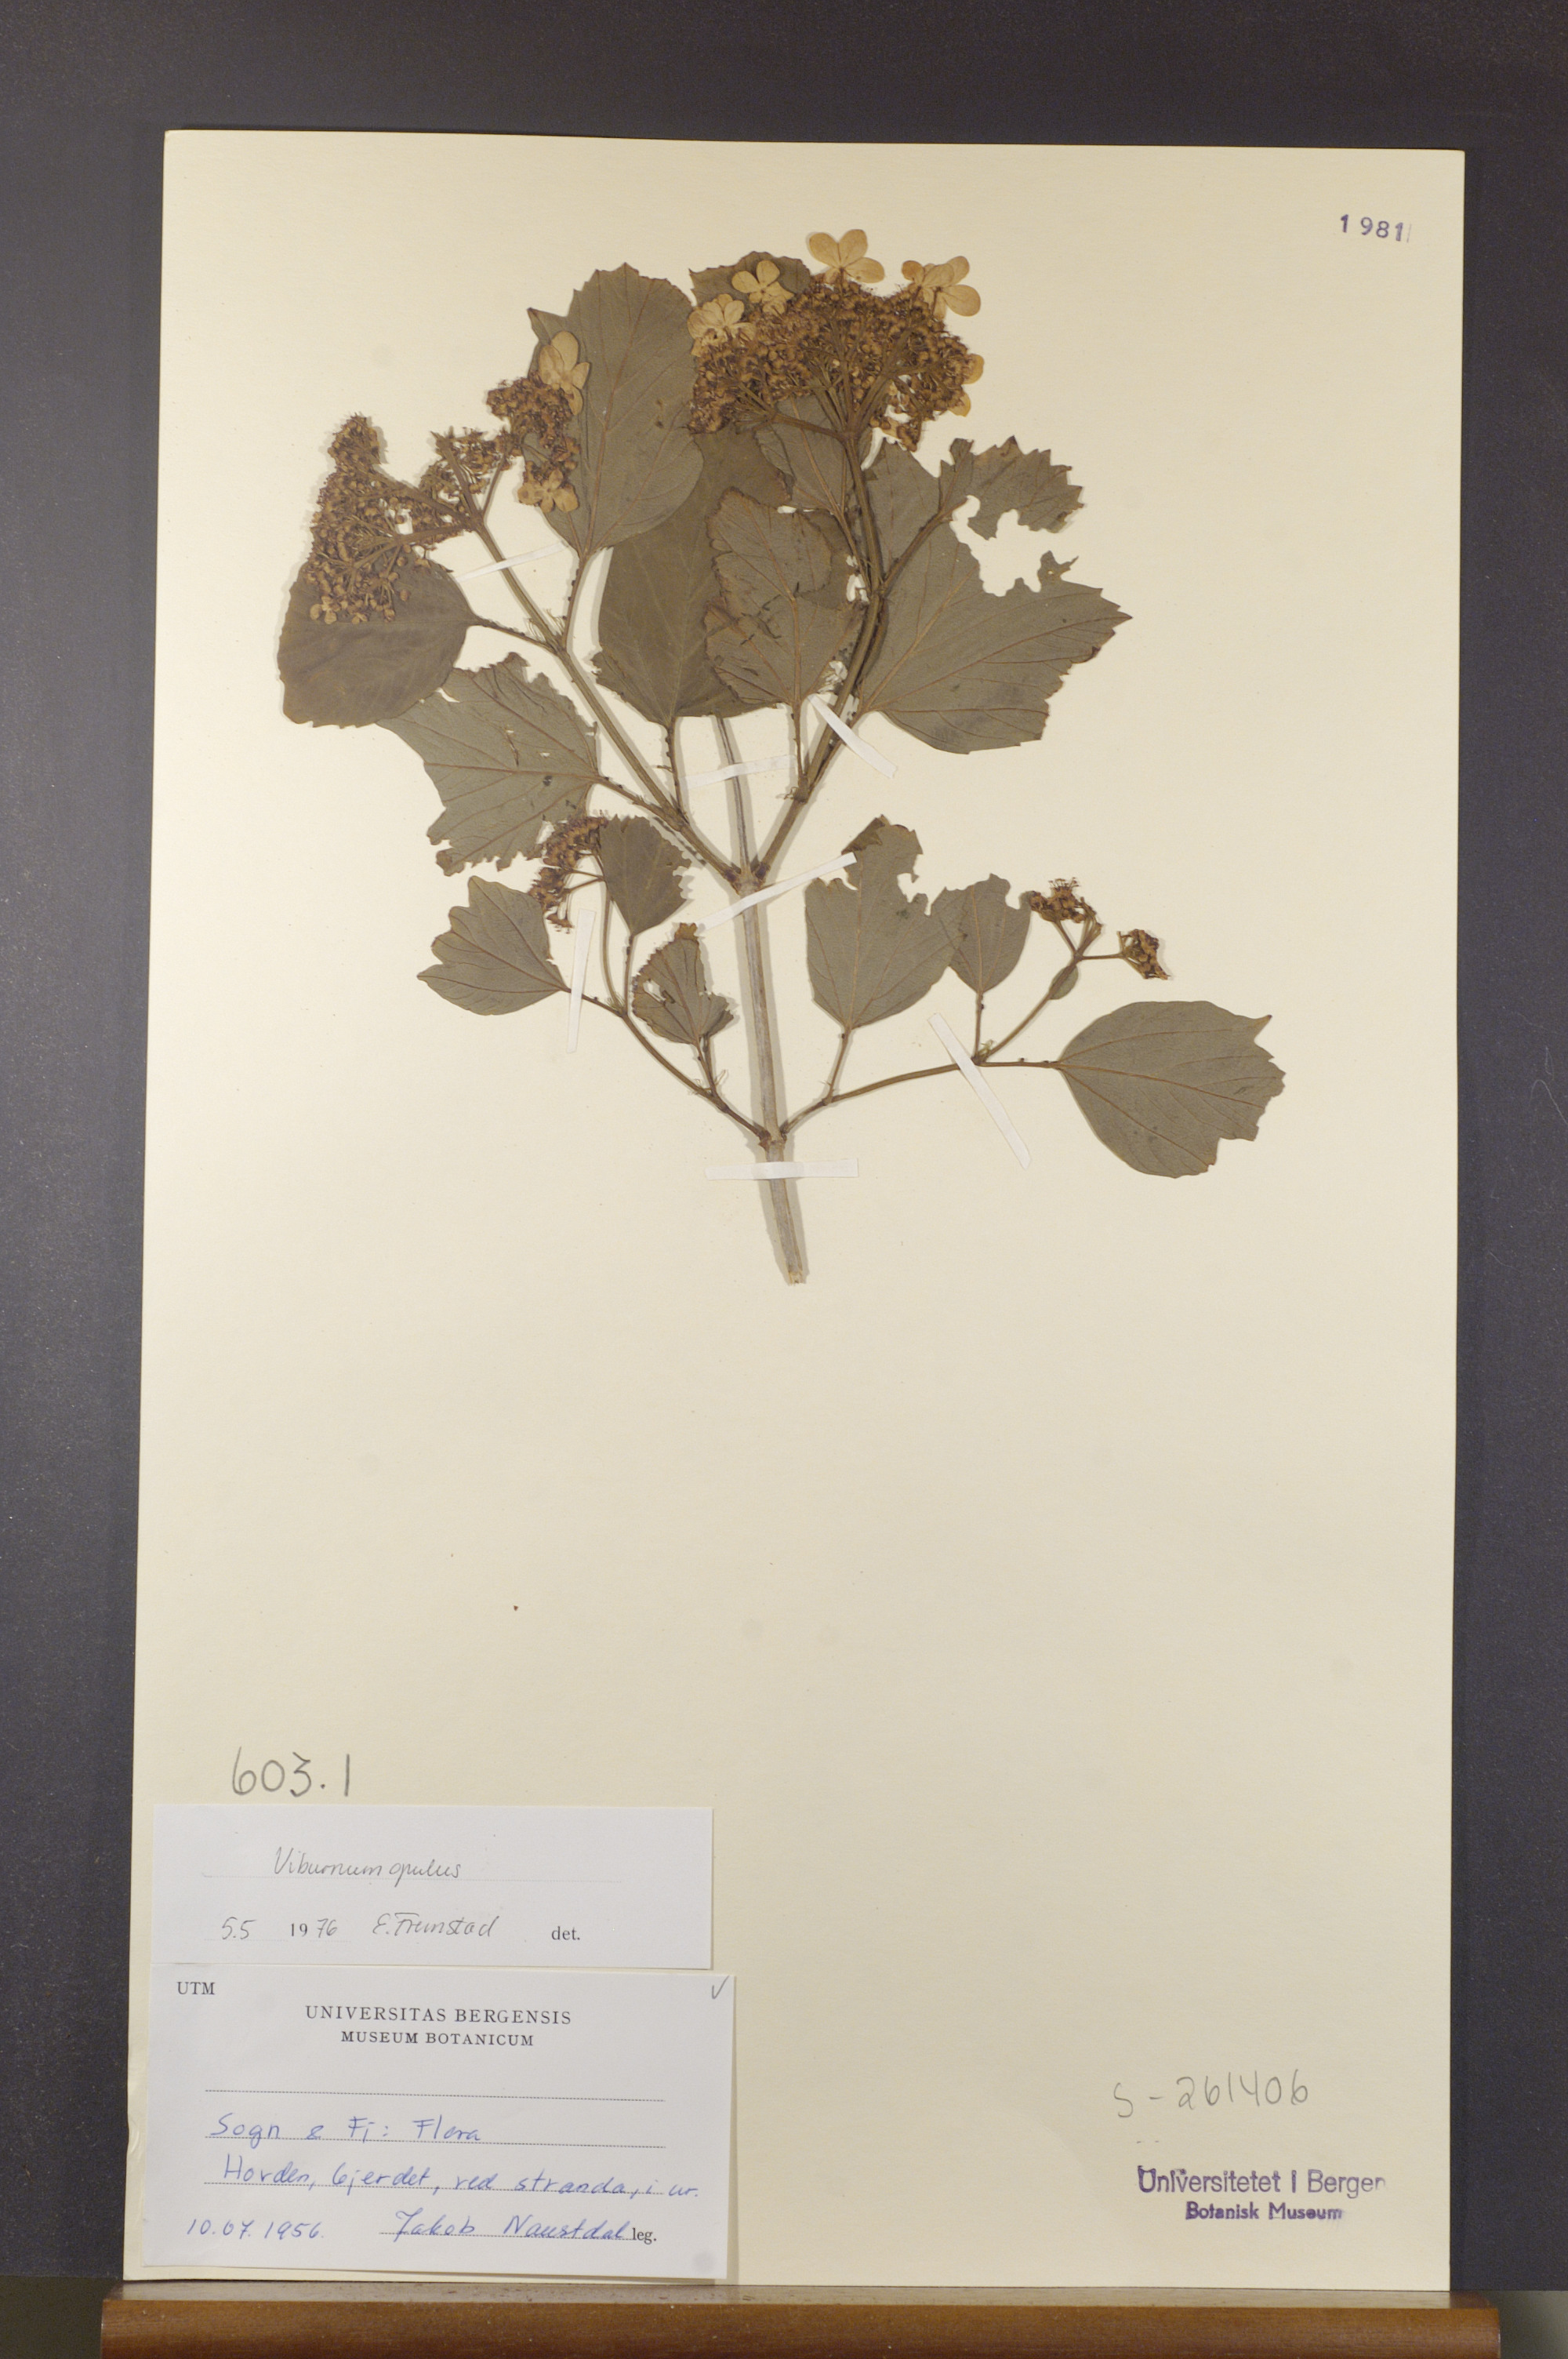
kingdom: Plantae
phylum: Tracheophyta
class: Magnoliopsida
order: Dipsacales
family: Viburnaceae
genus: Viburnum
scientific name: Viburnum opulus
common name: Guelder-rose
